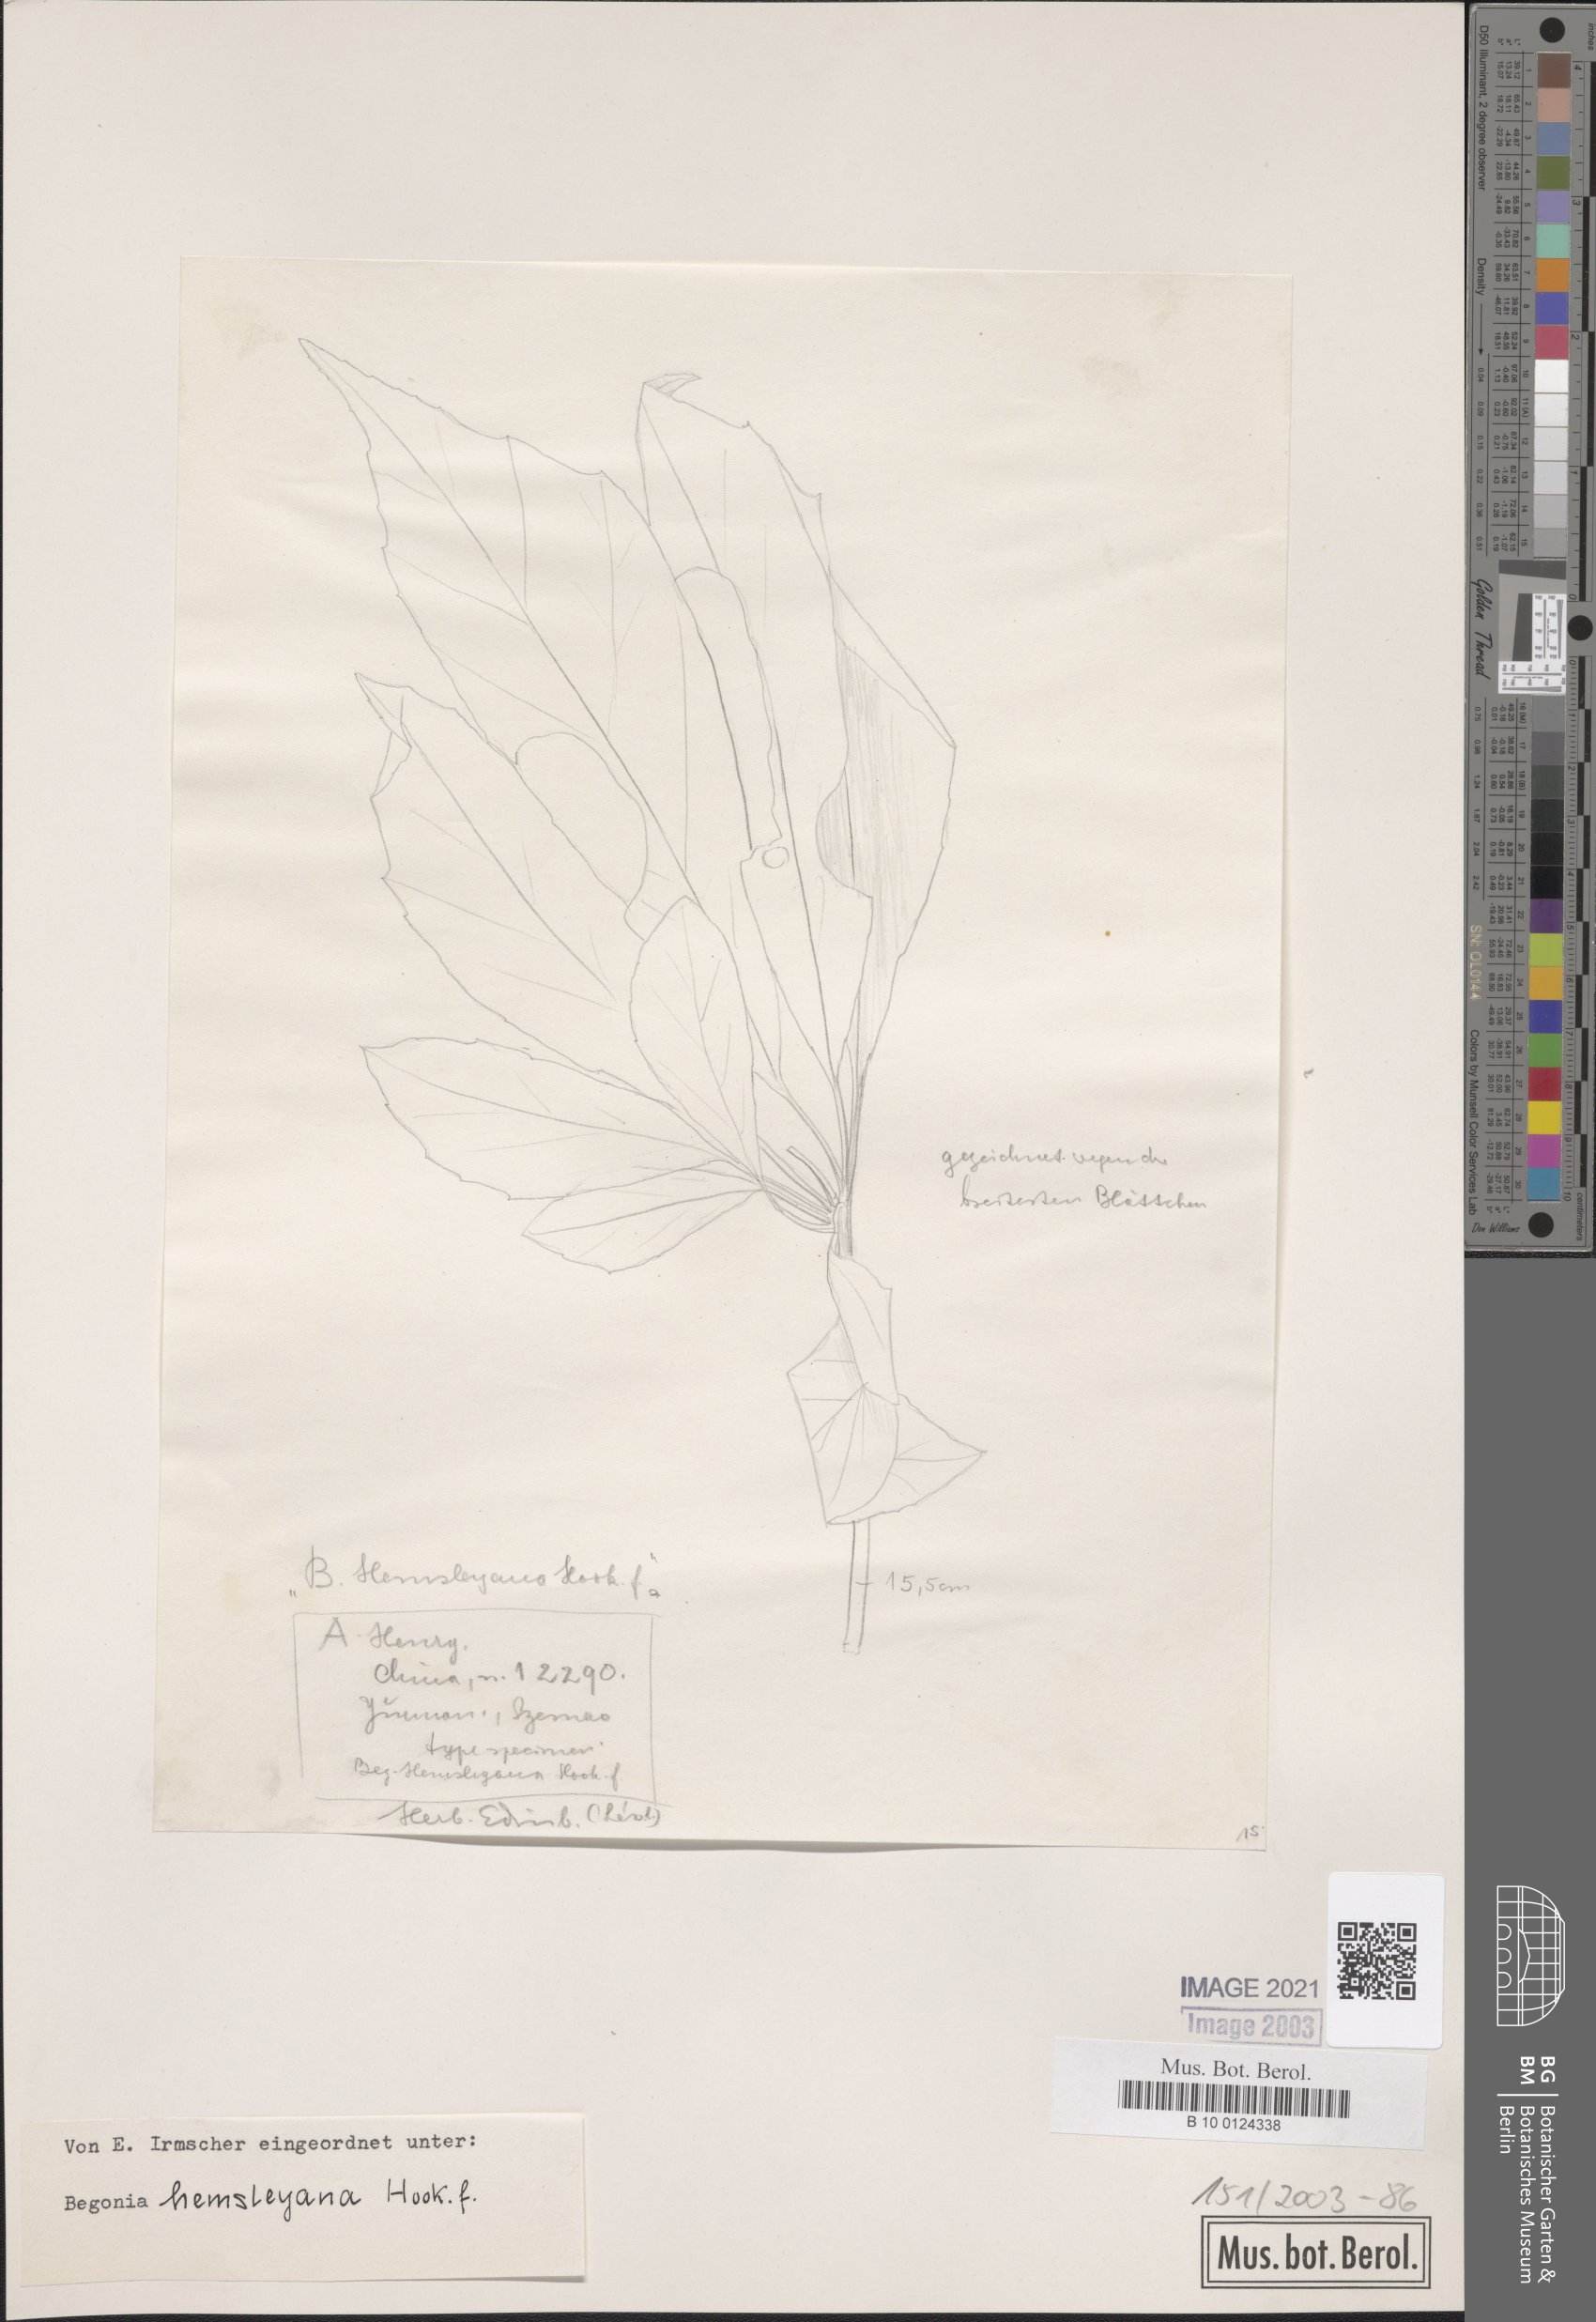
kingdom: Plantae
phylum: Tracheophyta
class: Magnoliopsida
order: Cucurbitales
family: Begoniaceae
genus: Begonia
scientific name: Begonia hemsleyana
